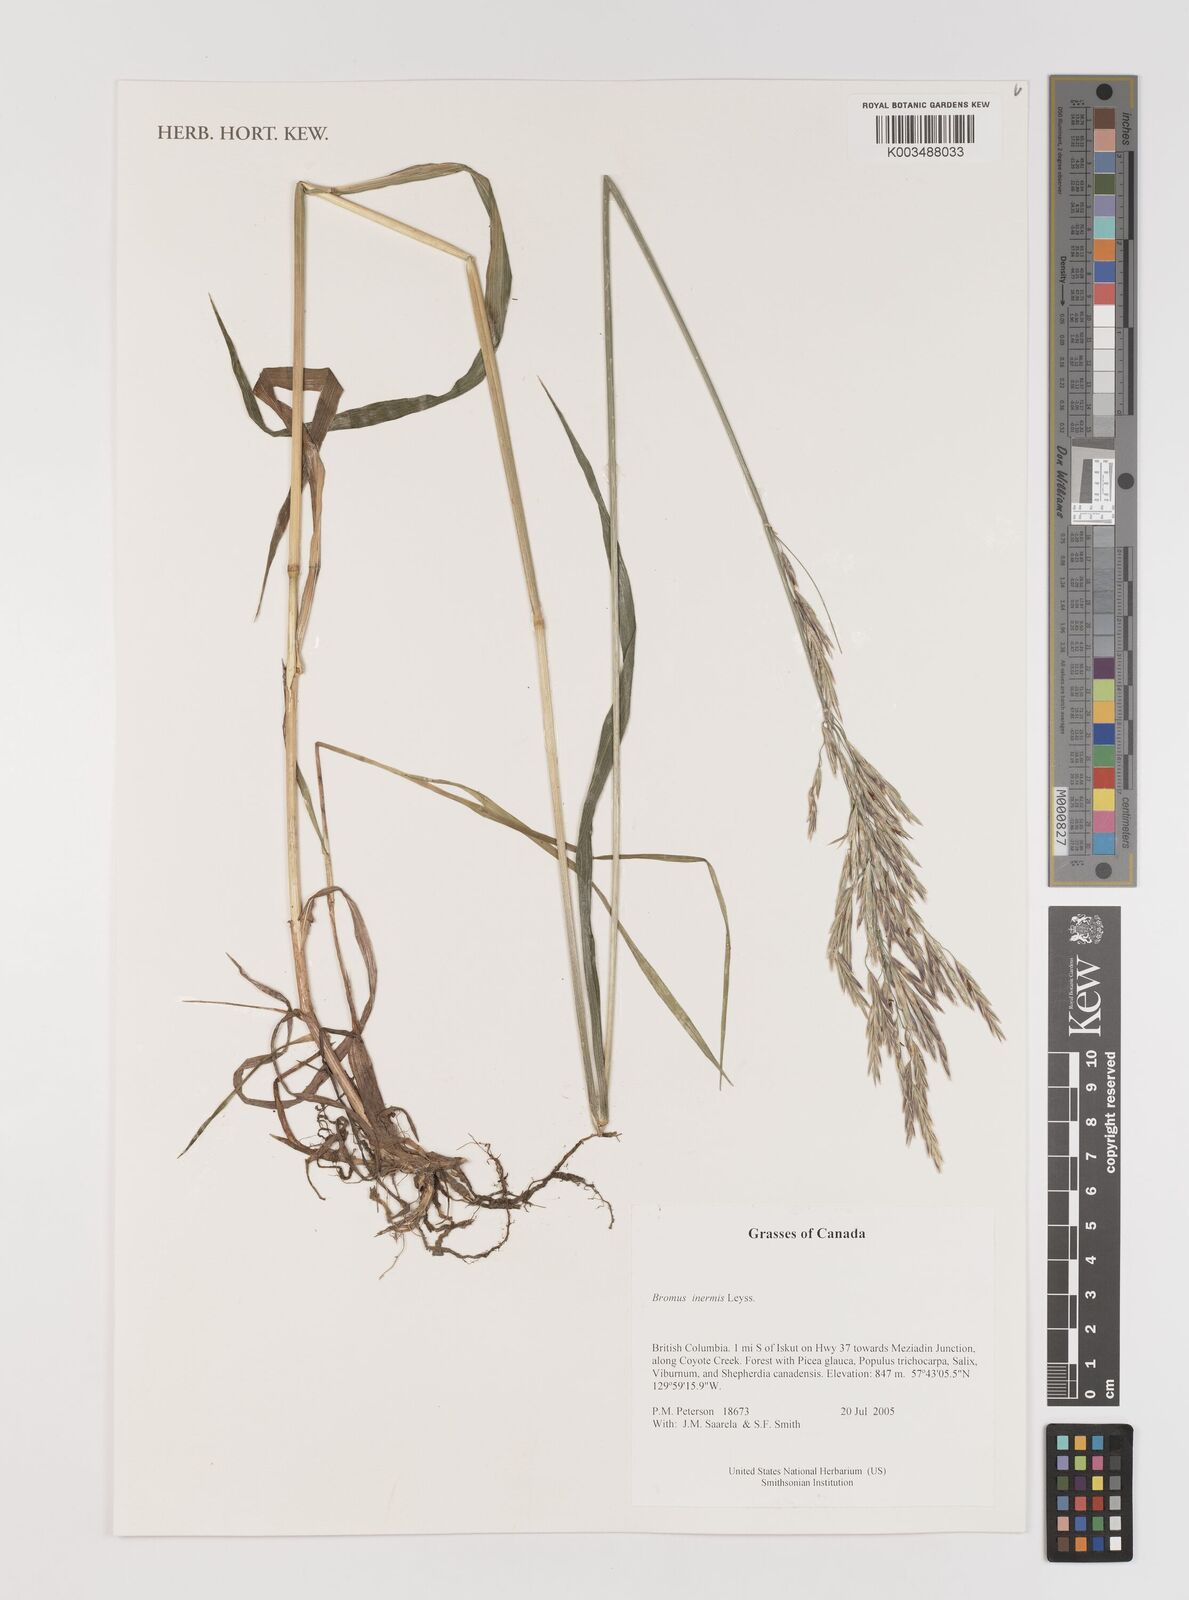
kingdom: Plantae
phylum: Tracheophyta
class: Liliopsida
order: Poales
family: Poaceae
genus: Bromus
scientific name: Bromus inermis
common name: Smooth brome
